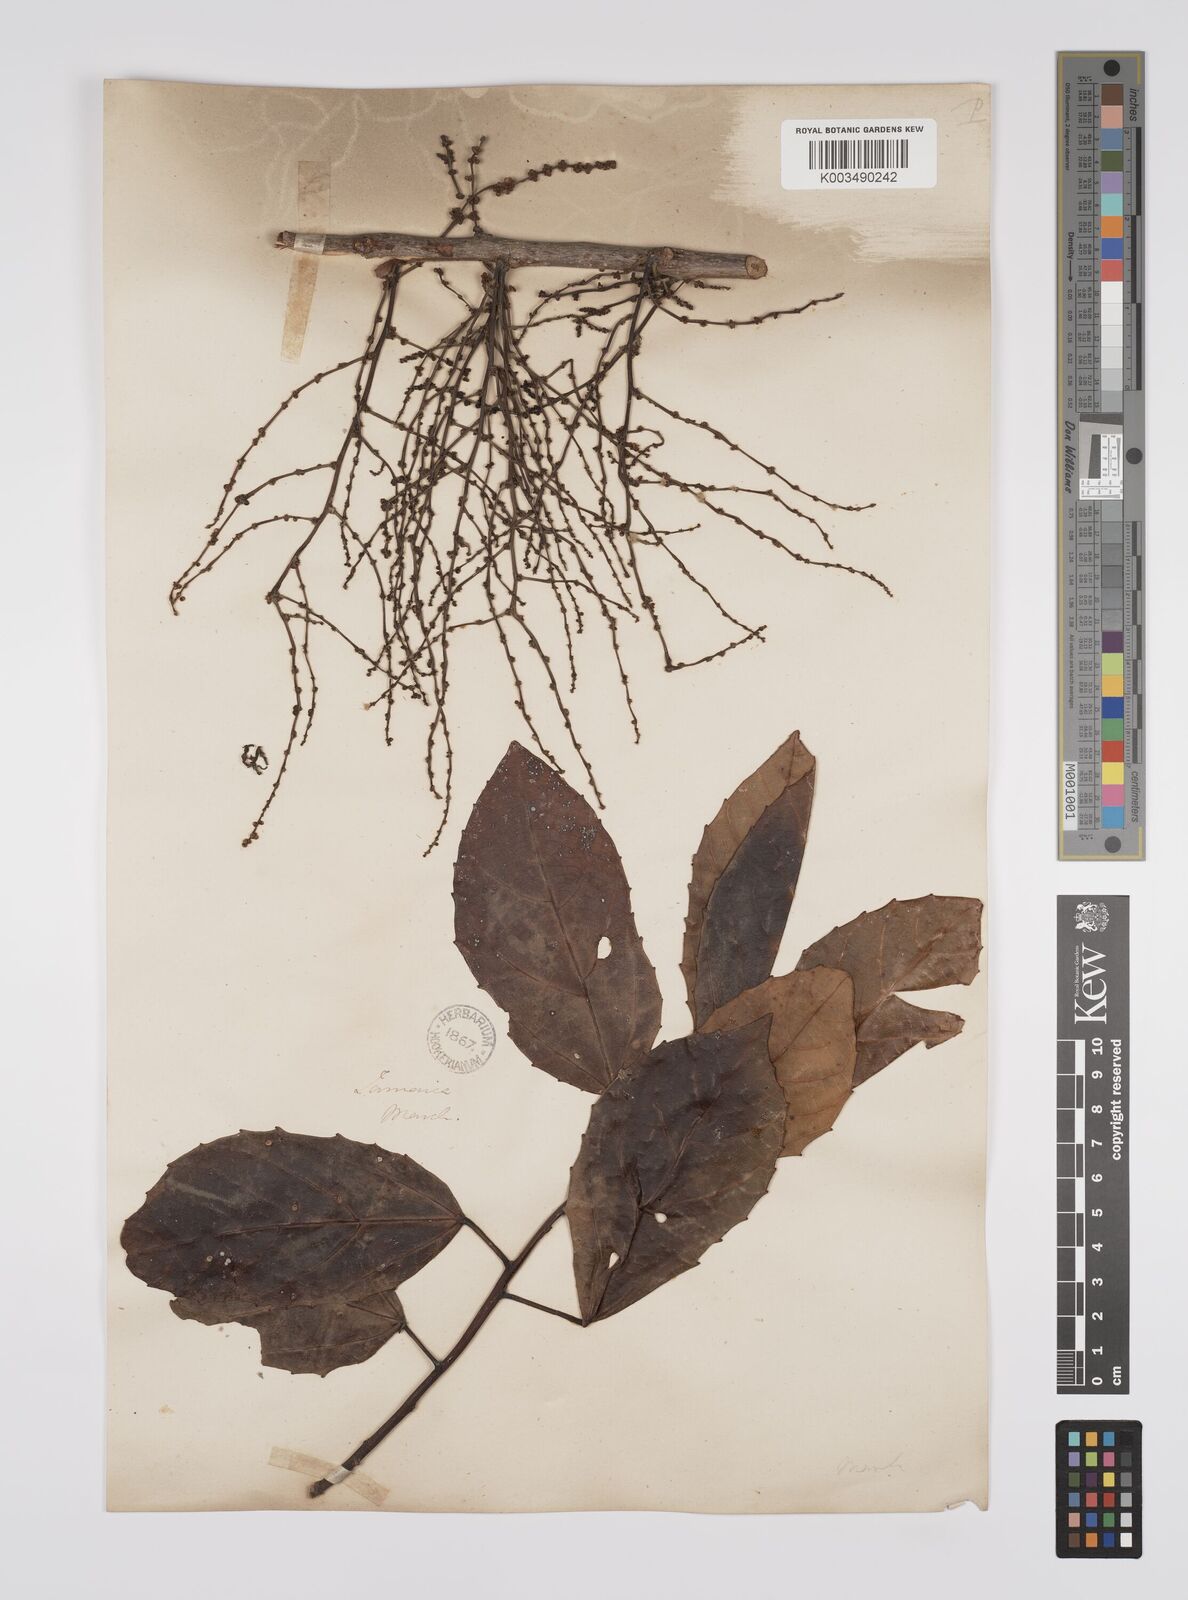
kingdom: Plantae
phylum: Tracheophyta
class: Magnoliopsida
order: Malpighiales
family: Euphorbiaceae
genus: Alchornea
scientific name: Alchornea latifolia
